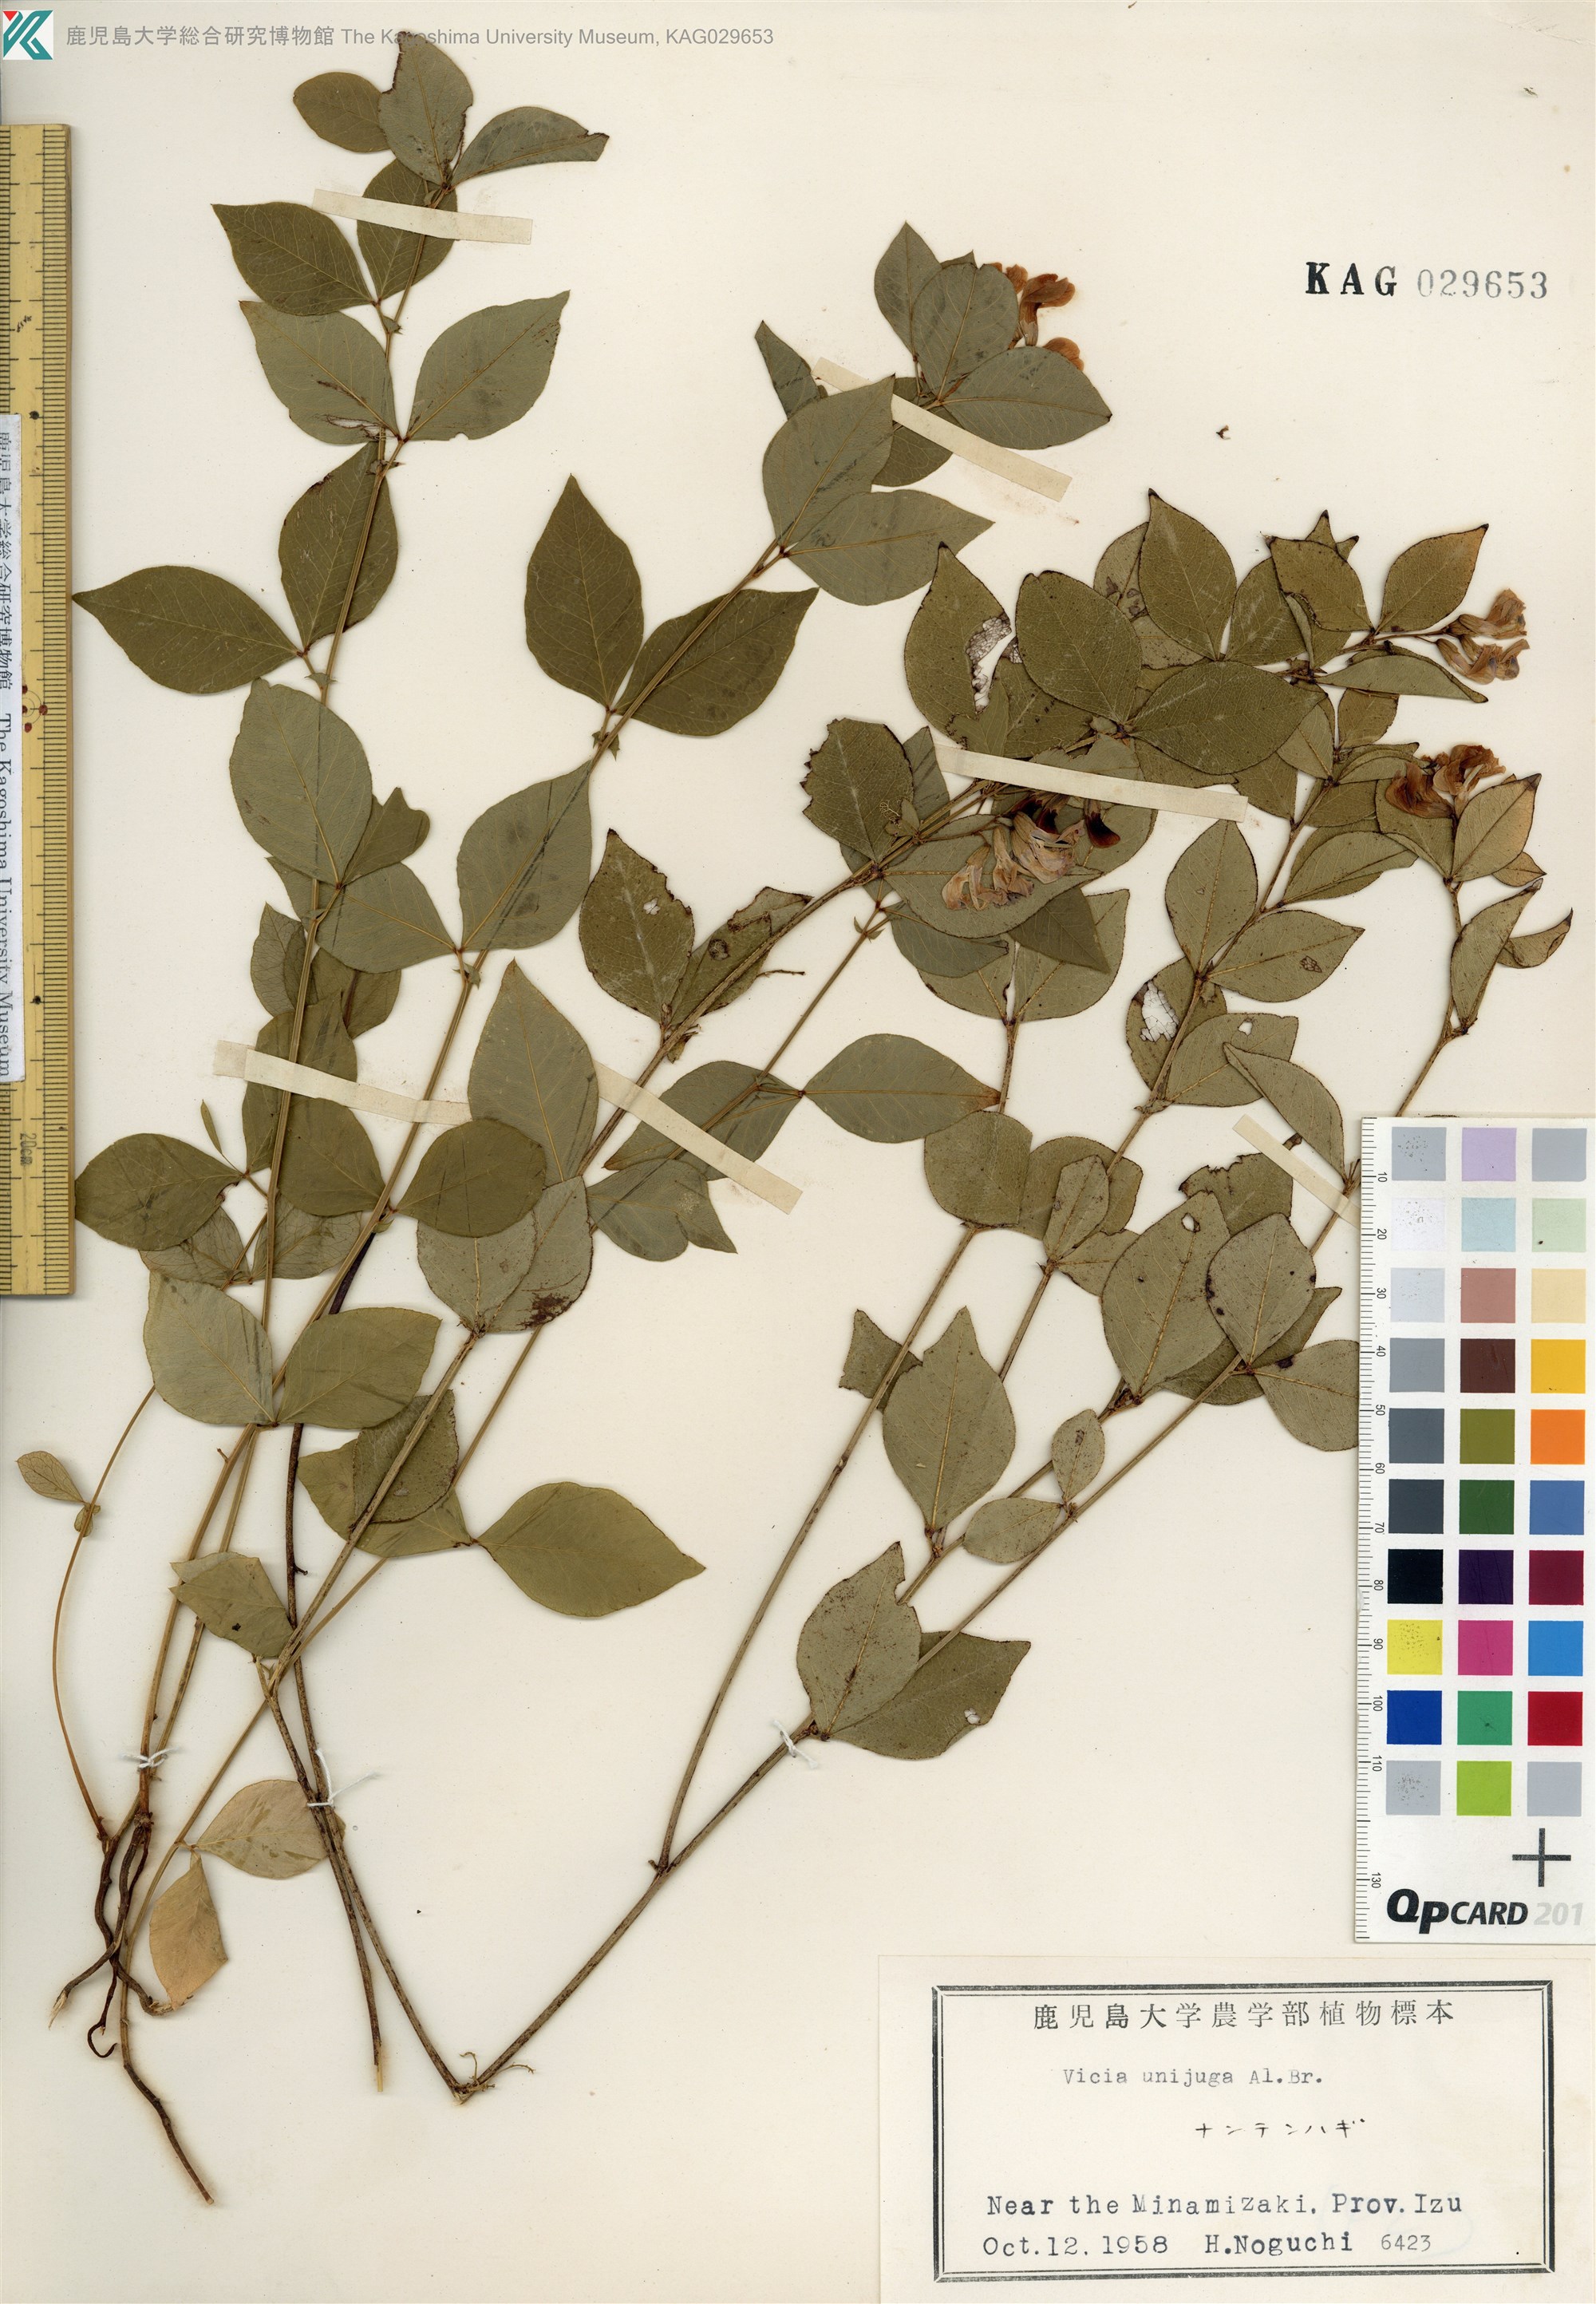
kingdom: Plantae
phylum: Tracheophyta
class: Magnoliopsida
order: Fabales
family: Fabaceae
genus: Vicia
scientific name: Vicia unijuga
